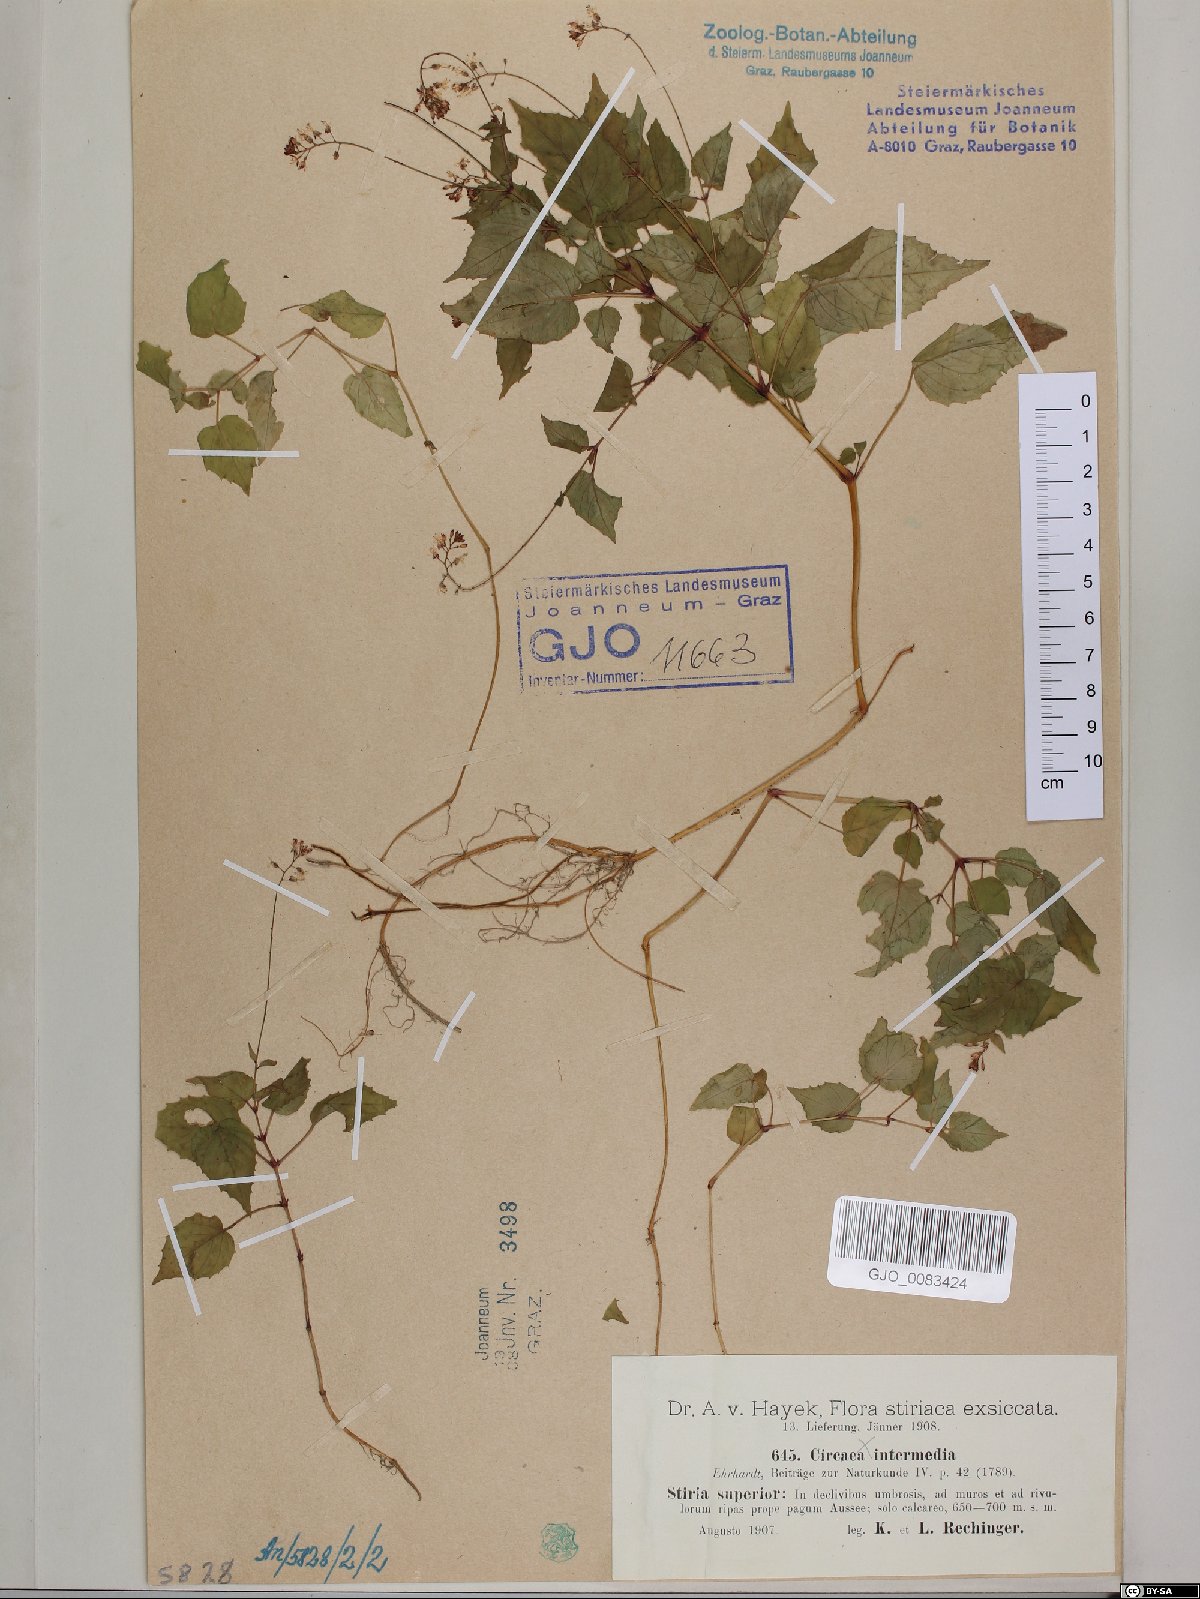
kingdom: Plantae
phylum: Tracheophyta
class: Magnoliopsida
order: Myrtales
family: Onagraceae
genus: Circaea
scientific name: Circaea intermedia
